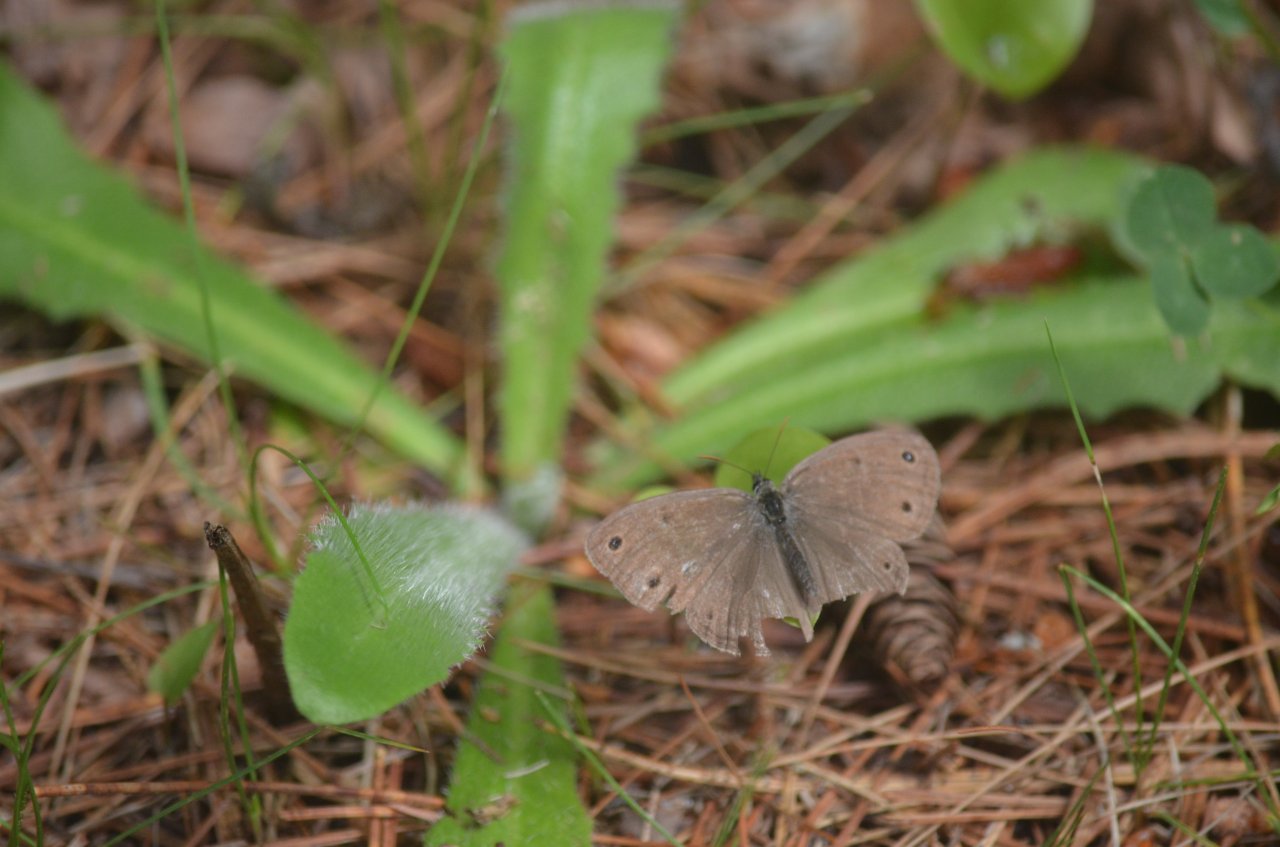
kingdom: Animalia
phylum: Arthropoda
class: Insecta
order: Lepidoptera
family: Nymphalidae
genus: Euptychia
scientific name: Euptychia cymela
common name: Little Wood Satyr
